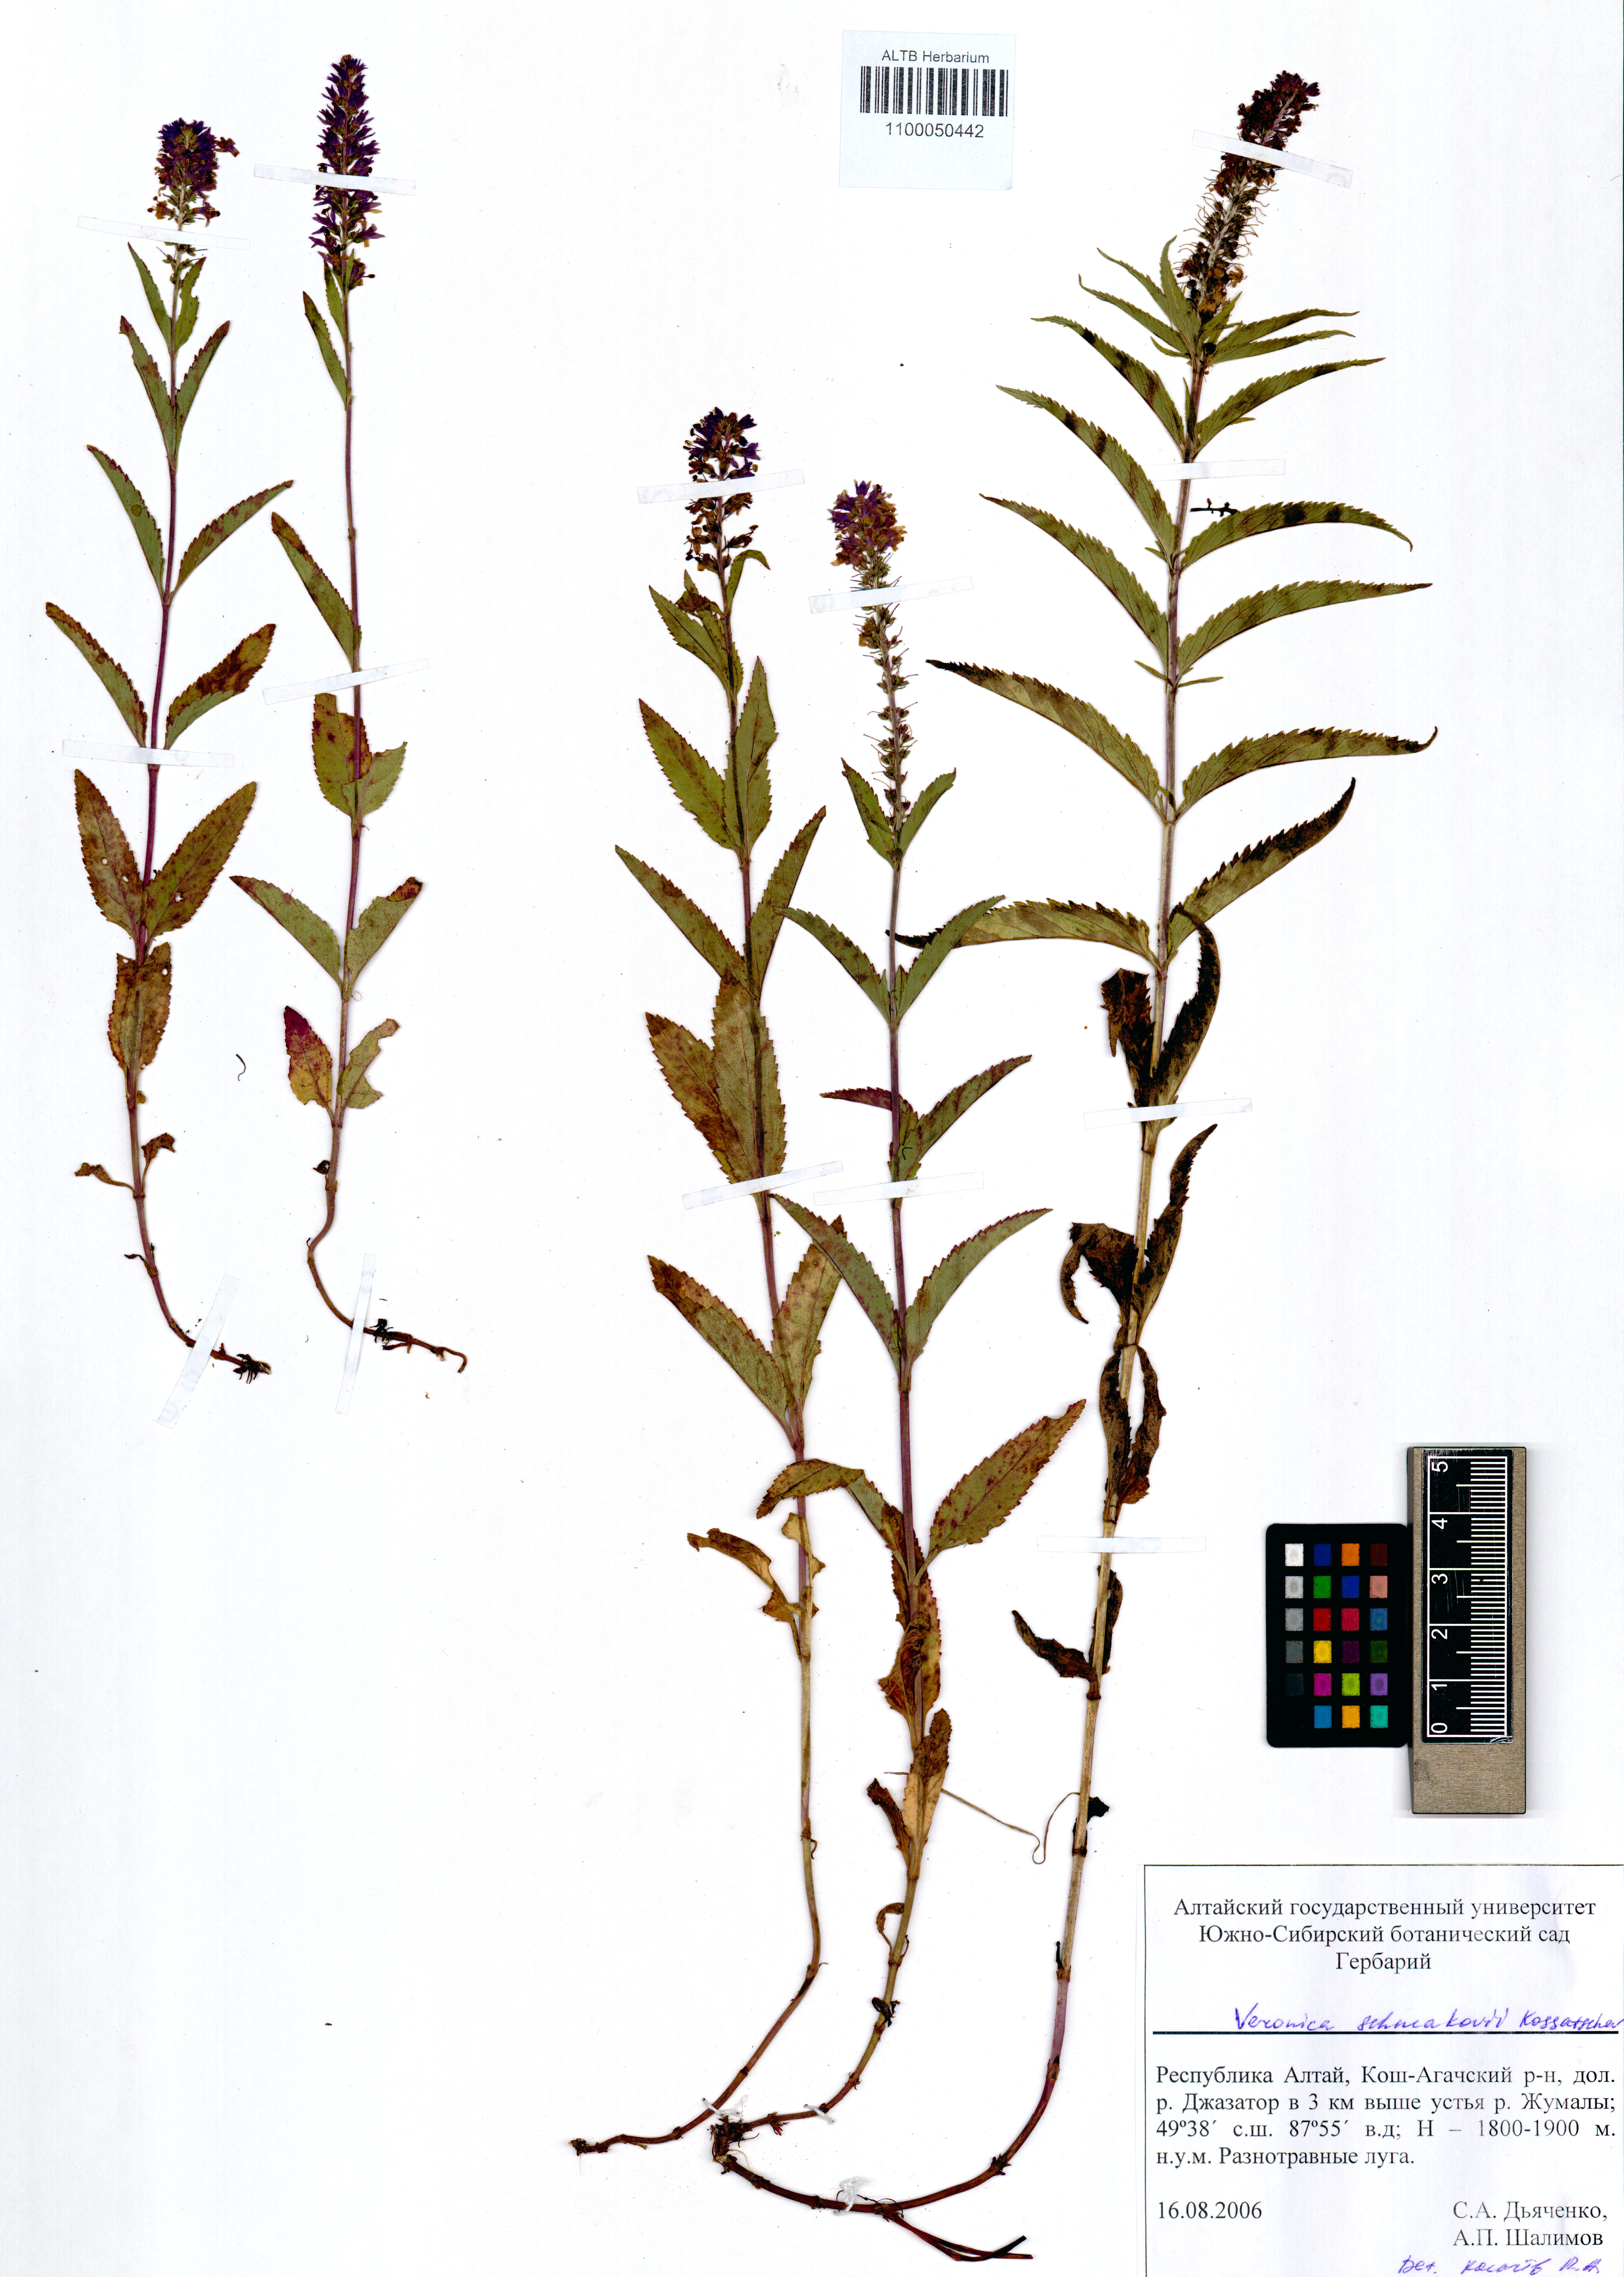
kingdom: Plantae
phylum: Tracheophyta
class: Magnoliopsida
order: Lamiales
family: Plantaginaceae
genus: Veronica
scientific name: Veronica schmakovii
